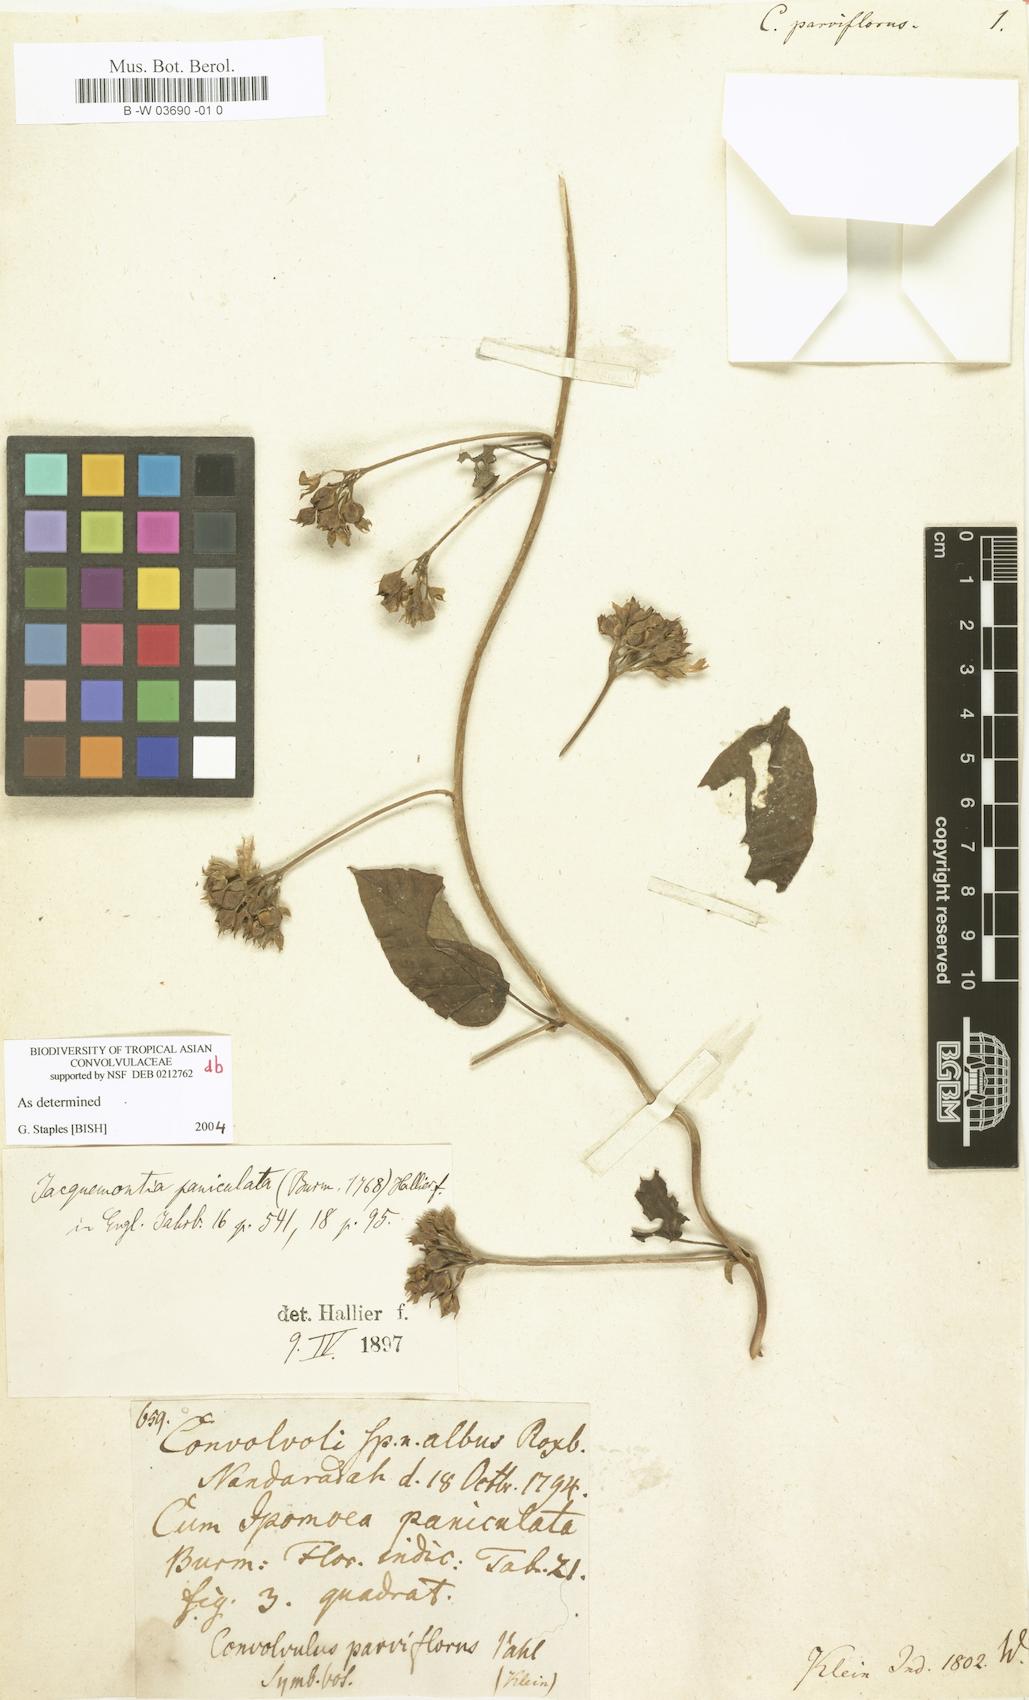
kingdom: Plantae
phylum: Tracheophyta
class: Magnoliopsida
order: Solanales
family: Convolvulaceae
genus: Convolvulus
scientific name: Convolvulus parviflorus
